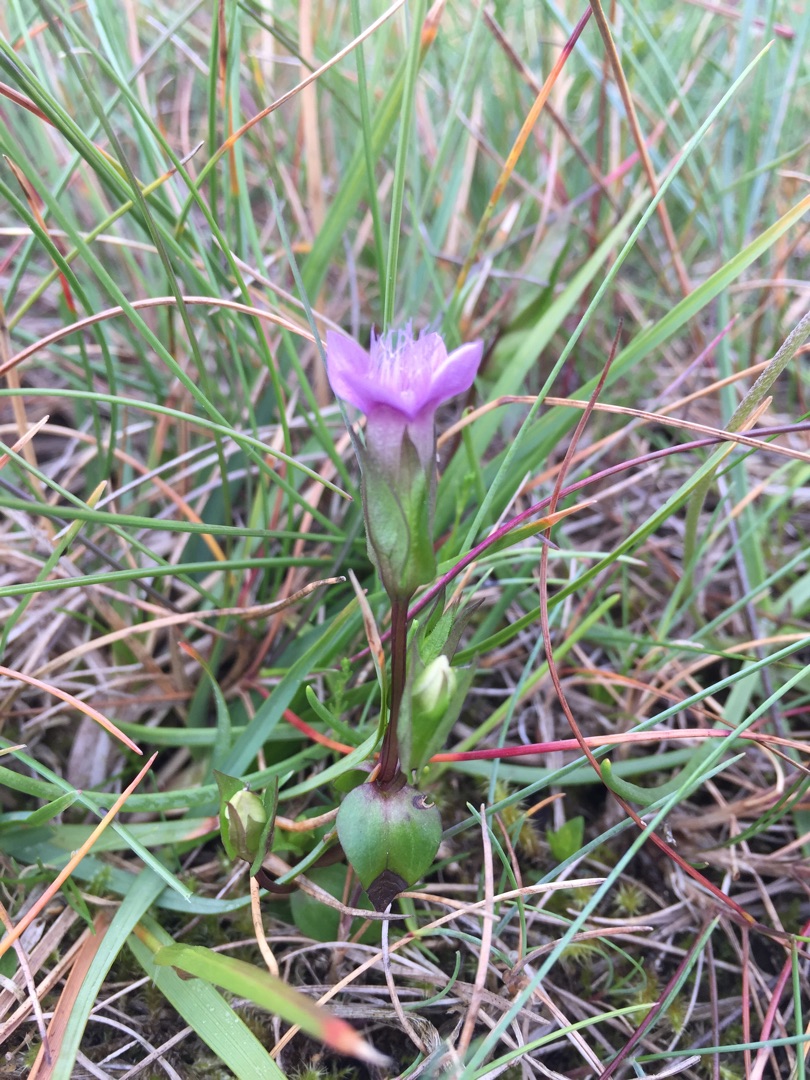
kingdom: Plantae
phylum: Tracheophyta
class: Magnoliopsida
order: Gentianales
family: Gentianaceae
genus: Gentianella
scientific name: Gentianella campestris
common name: Bredbægret ensian
